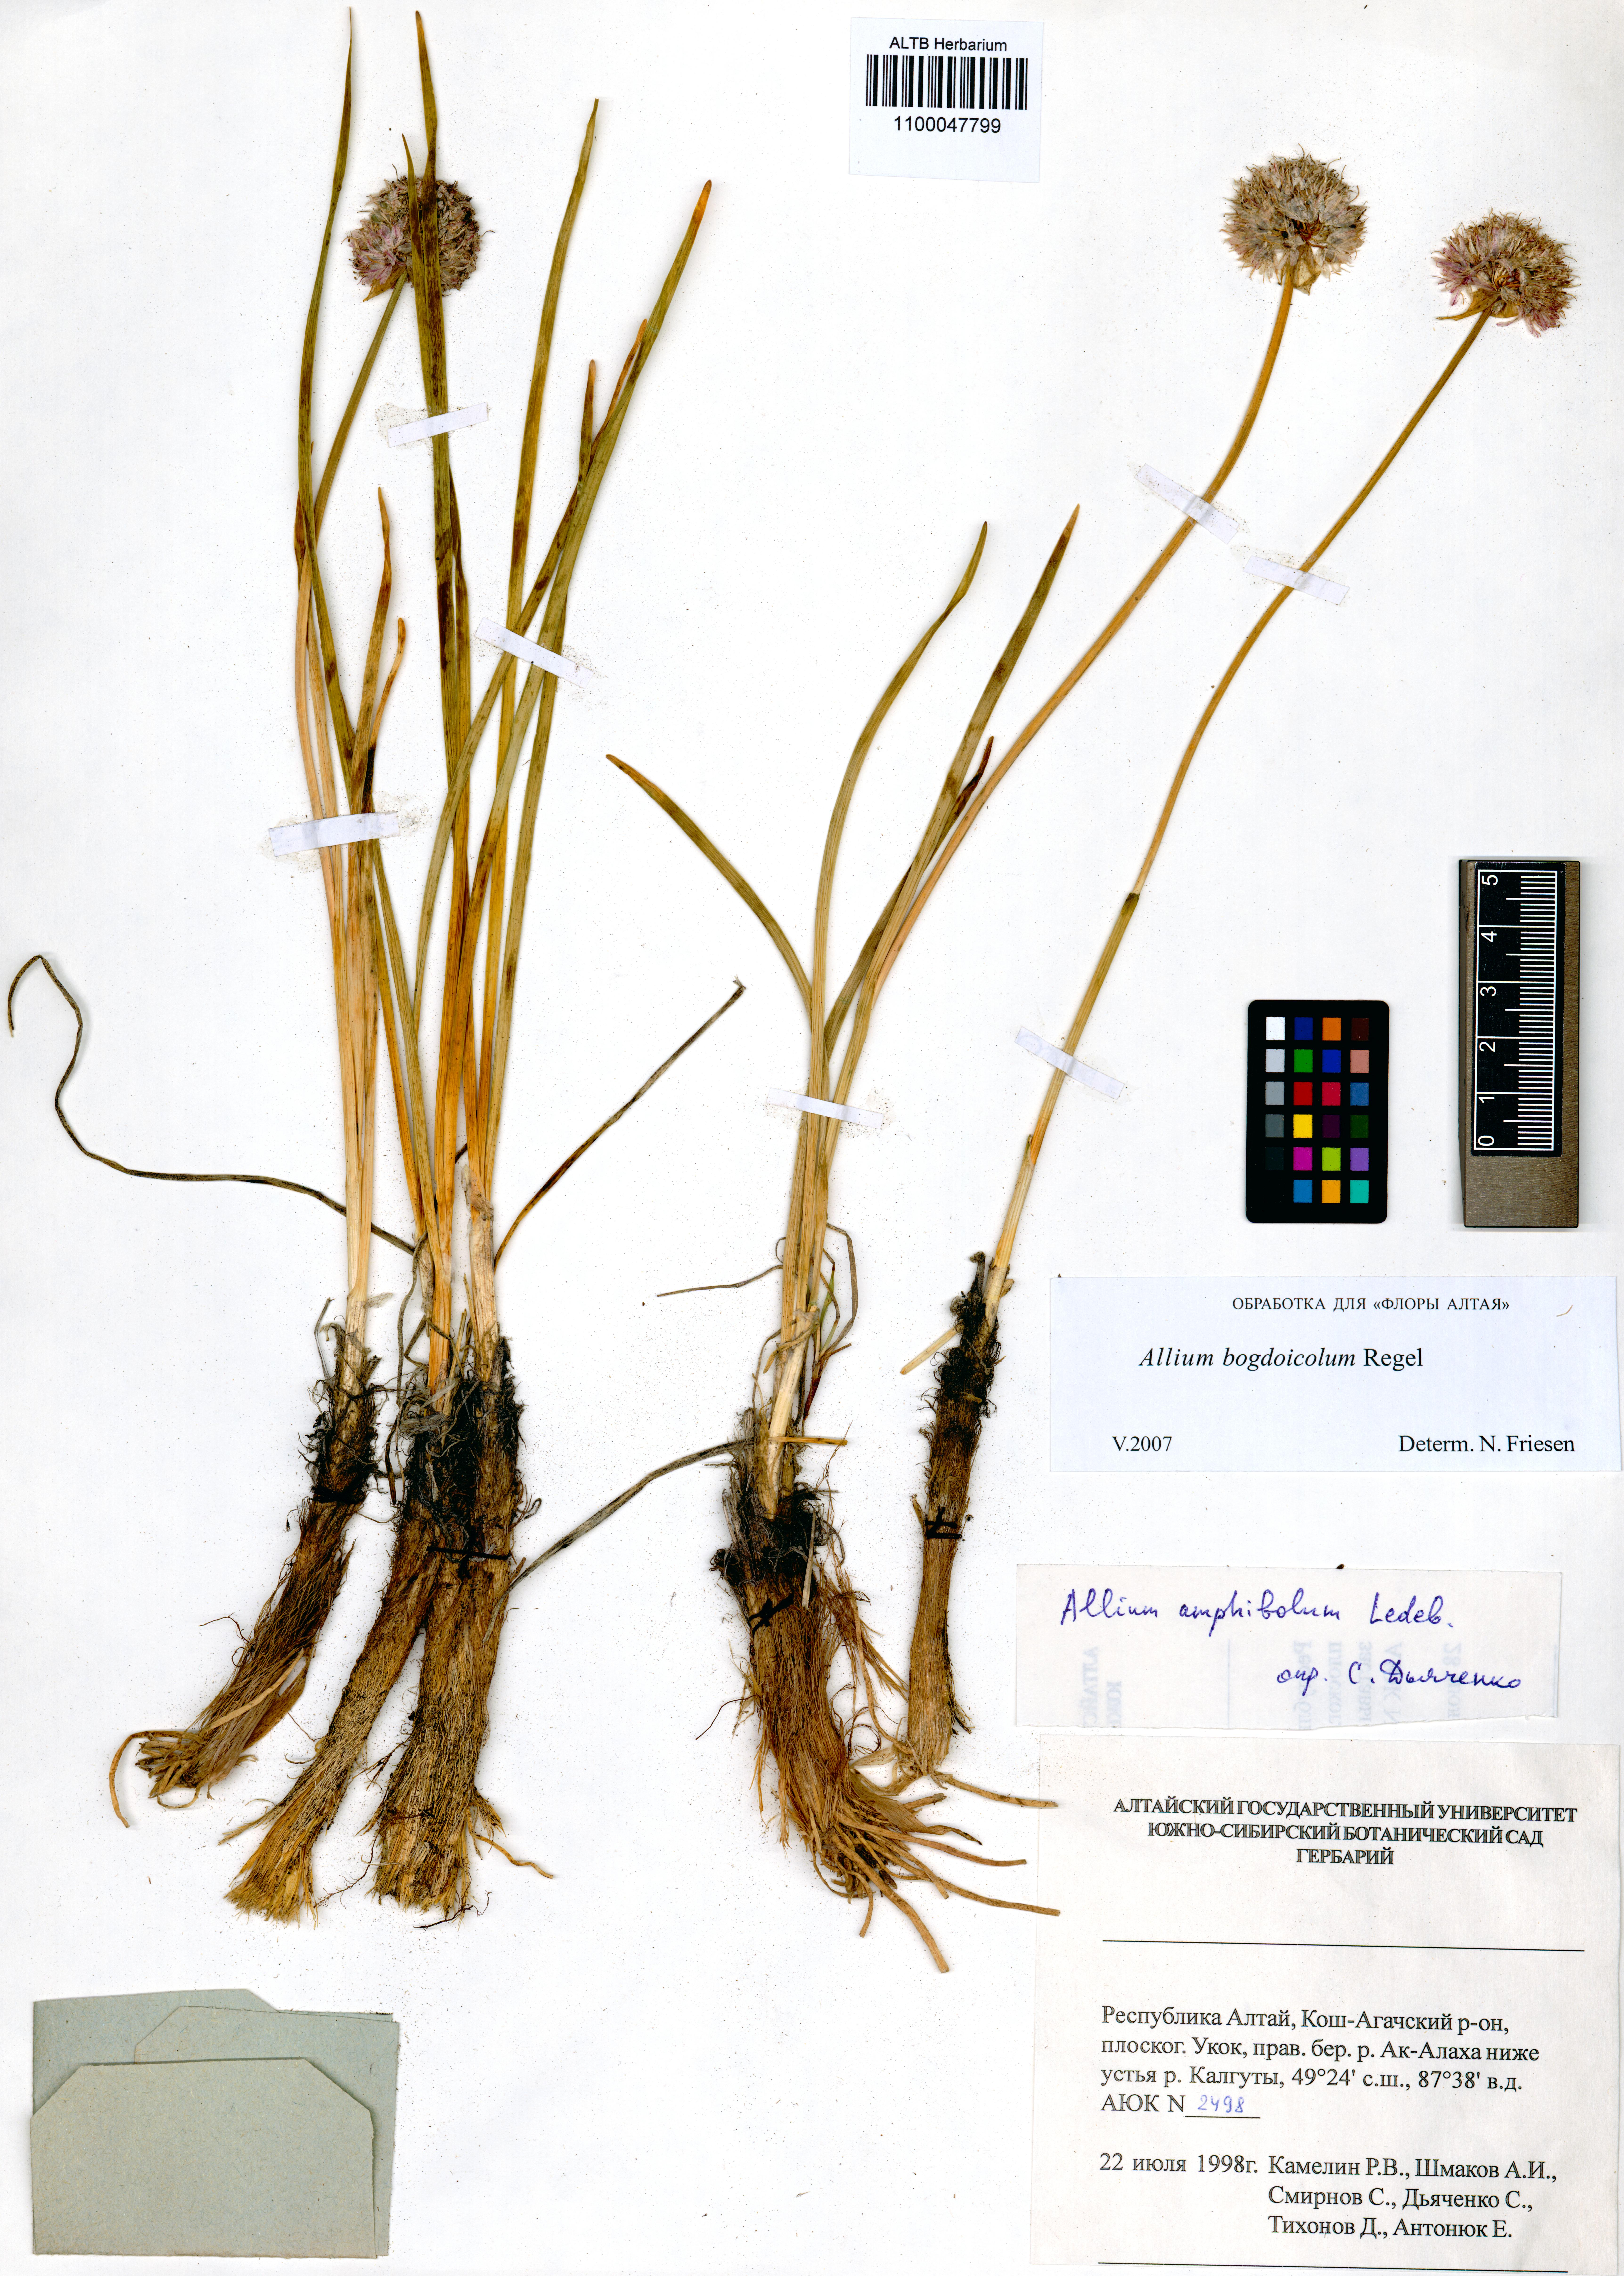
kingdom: Plantae
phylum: Tracheophyta
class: Liliopsida
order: Asparagales
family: Amaryllidaceae
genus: Allium
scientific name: Allium schrenkii
